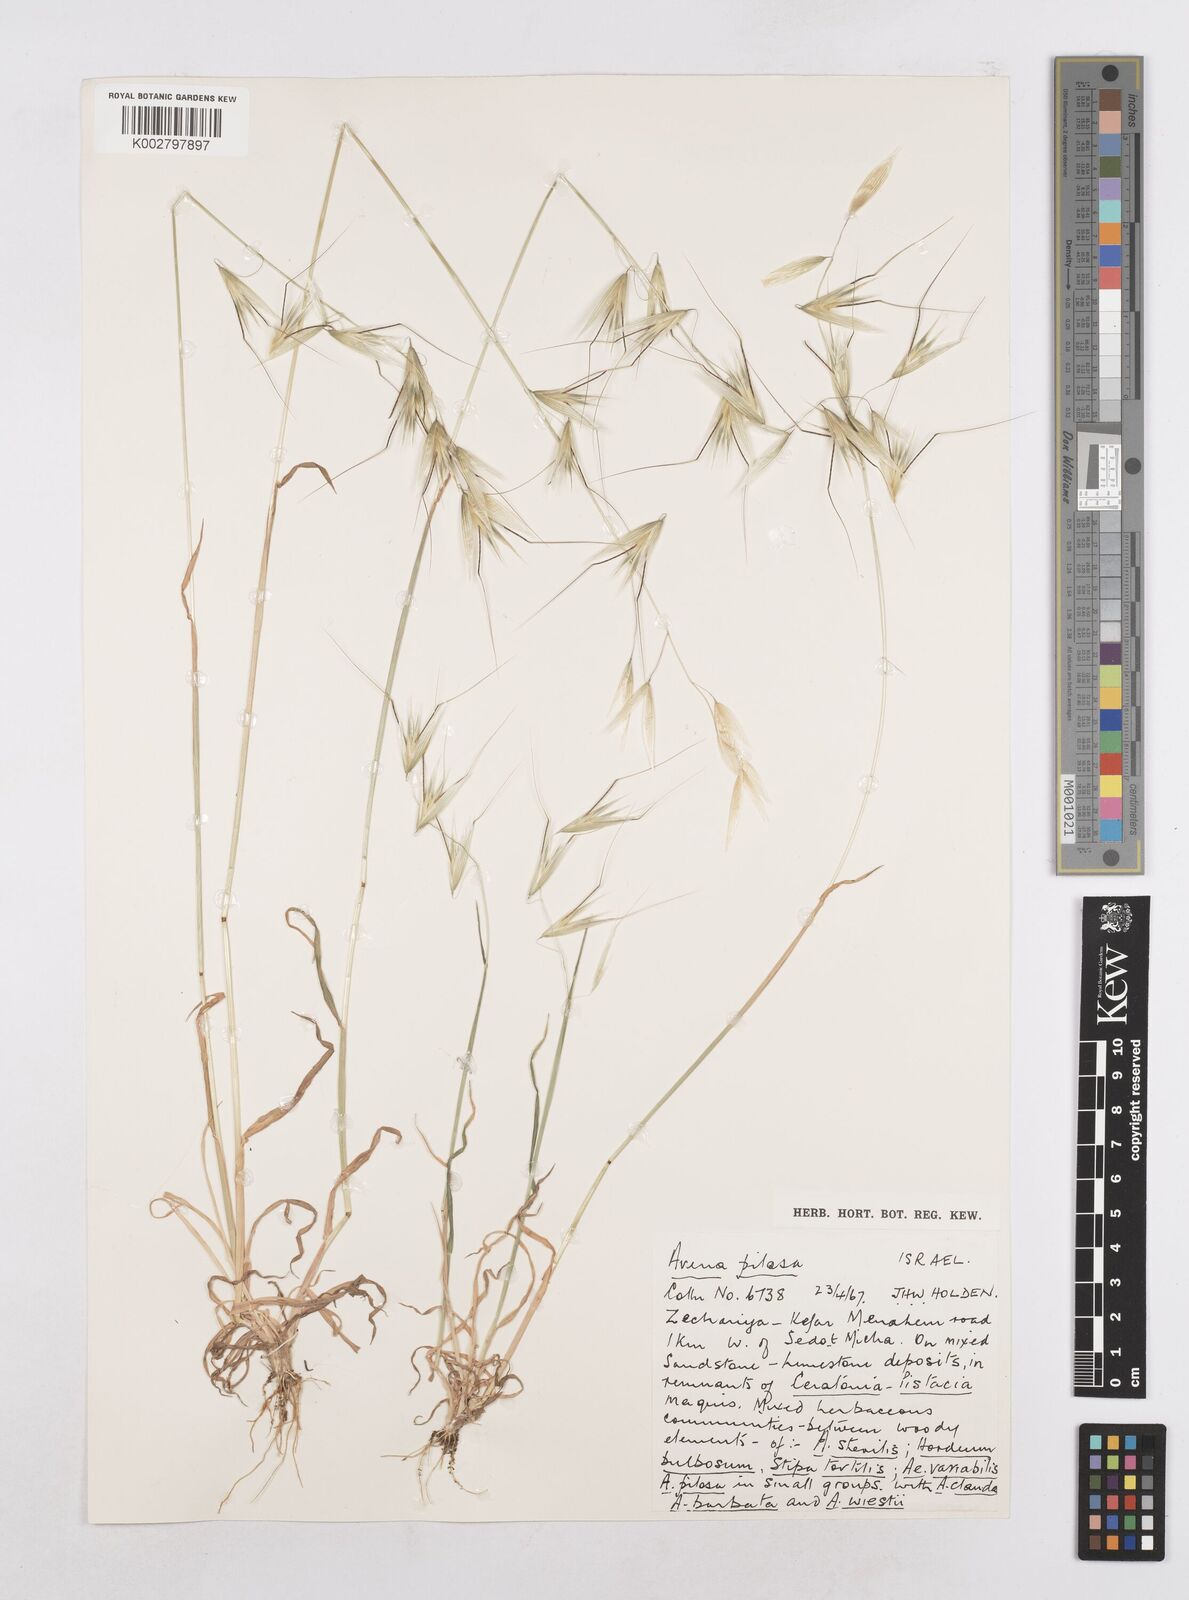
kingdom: Plantae
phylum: Tracheophyta
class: Liliopsida
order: Poales
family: Poaceae
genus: Avena
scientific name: Avena
